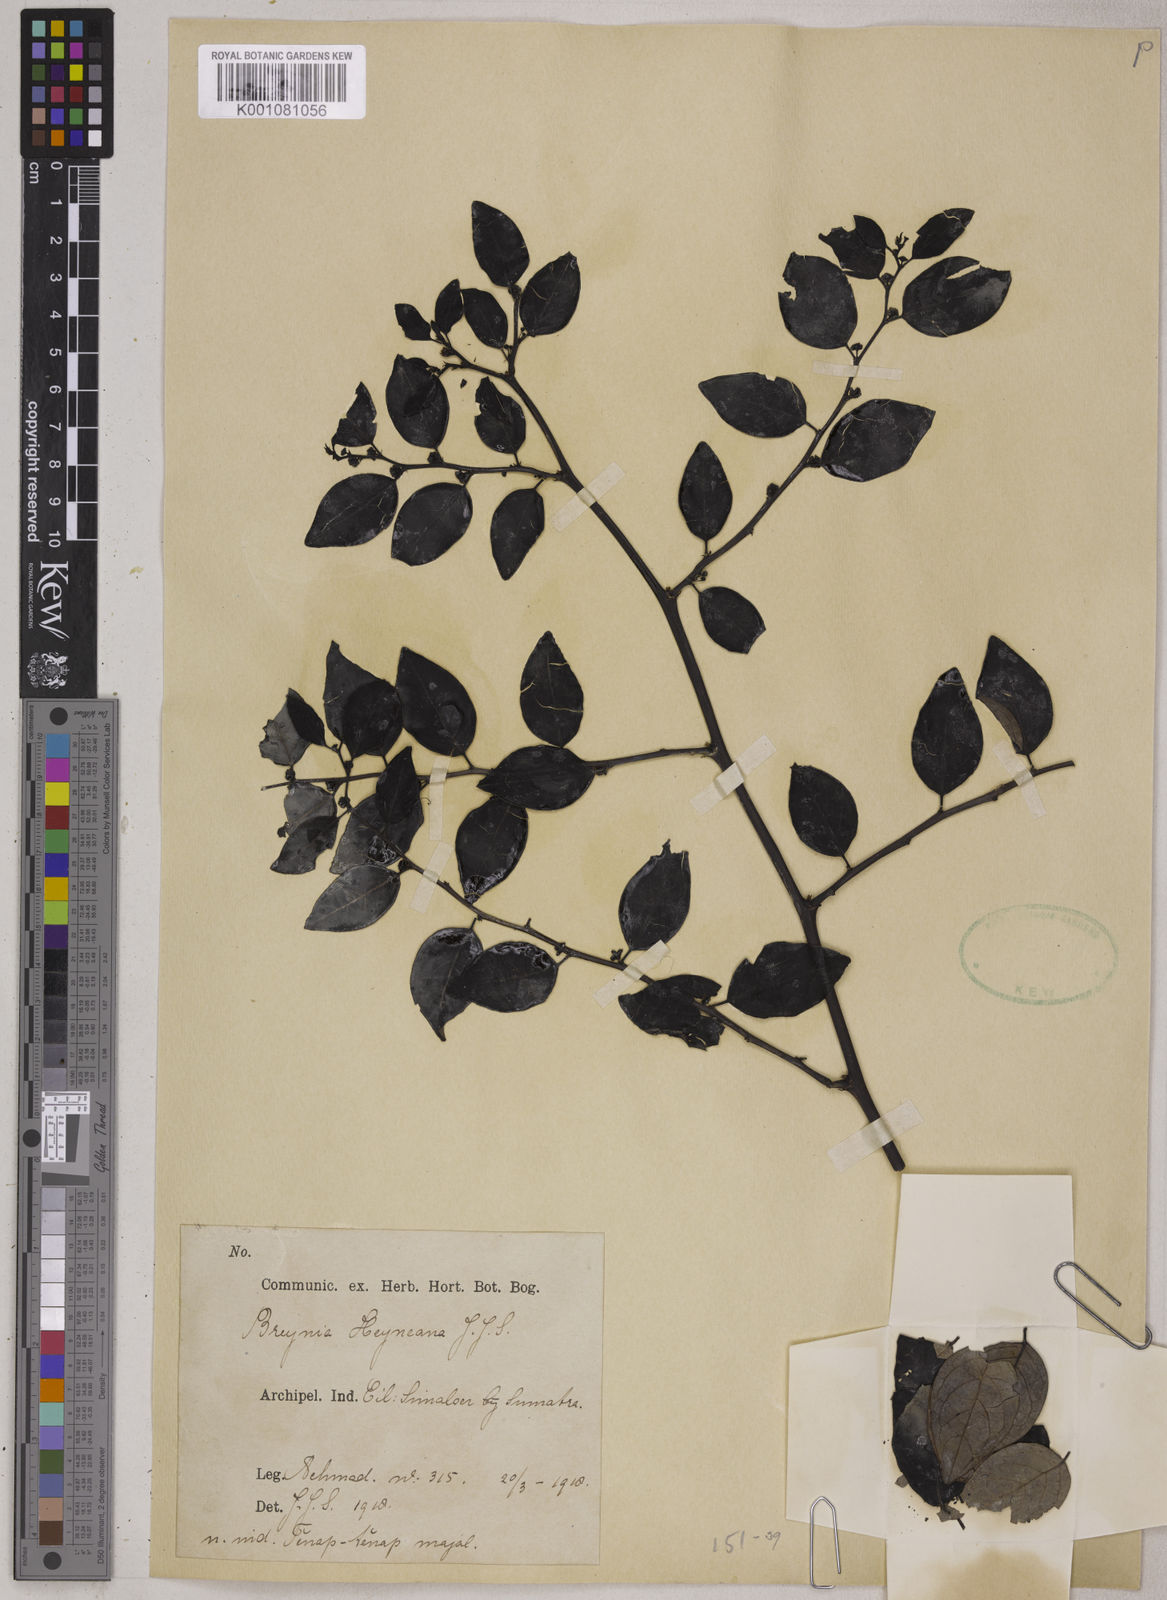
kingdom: Plantae
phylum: Tracheophyta
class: Magnoliopsida
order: Malpighiales
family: Phyllanthaceae
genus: Breynia
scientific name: Breynia heyneana
